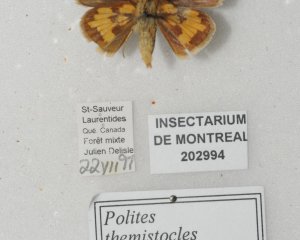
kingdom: Animalia
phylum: Arthropoda
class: Insecta
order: Lepidoptera
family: Hesperiidae
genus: Polites
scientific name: Polites coras
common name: Peck's Skipper
